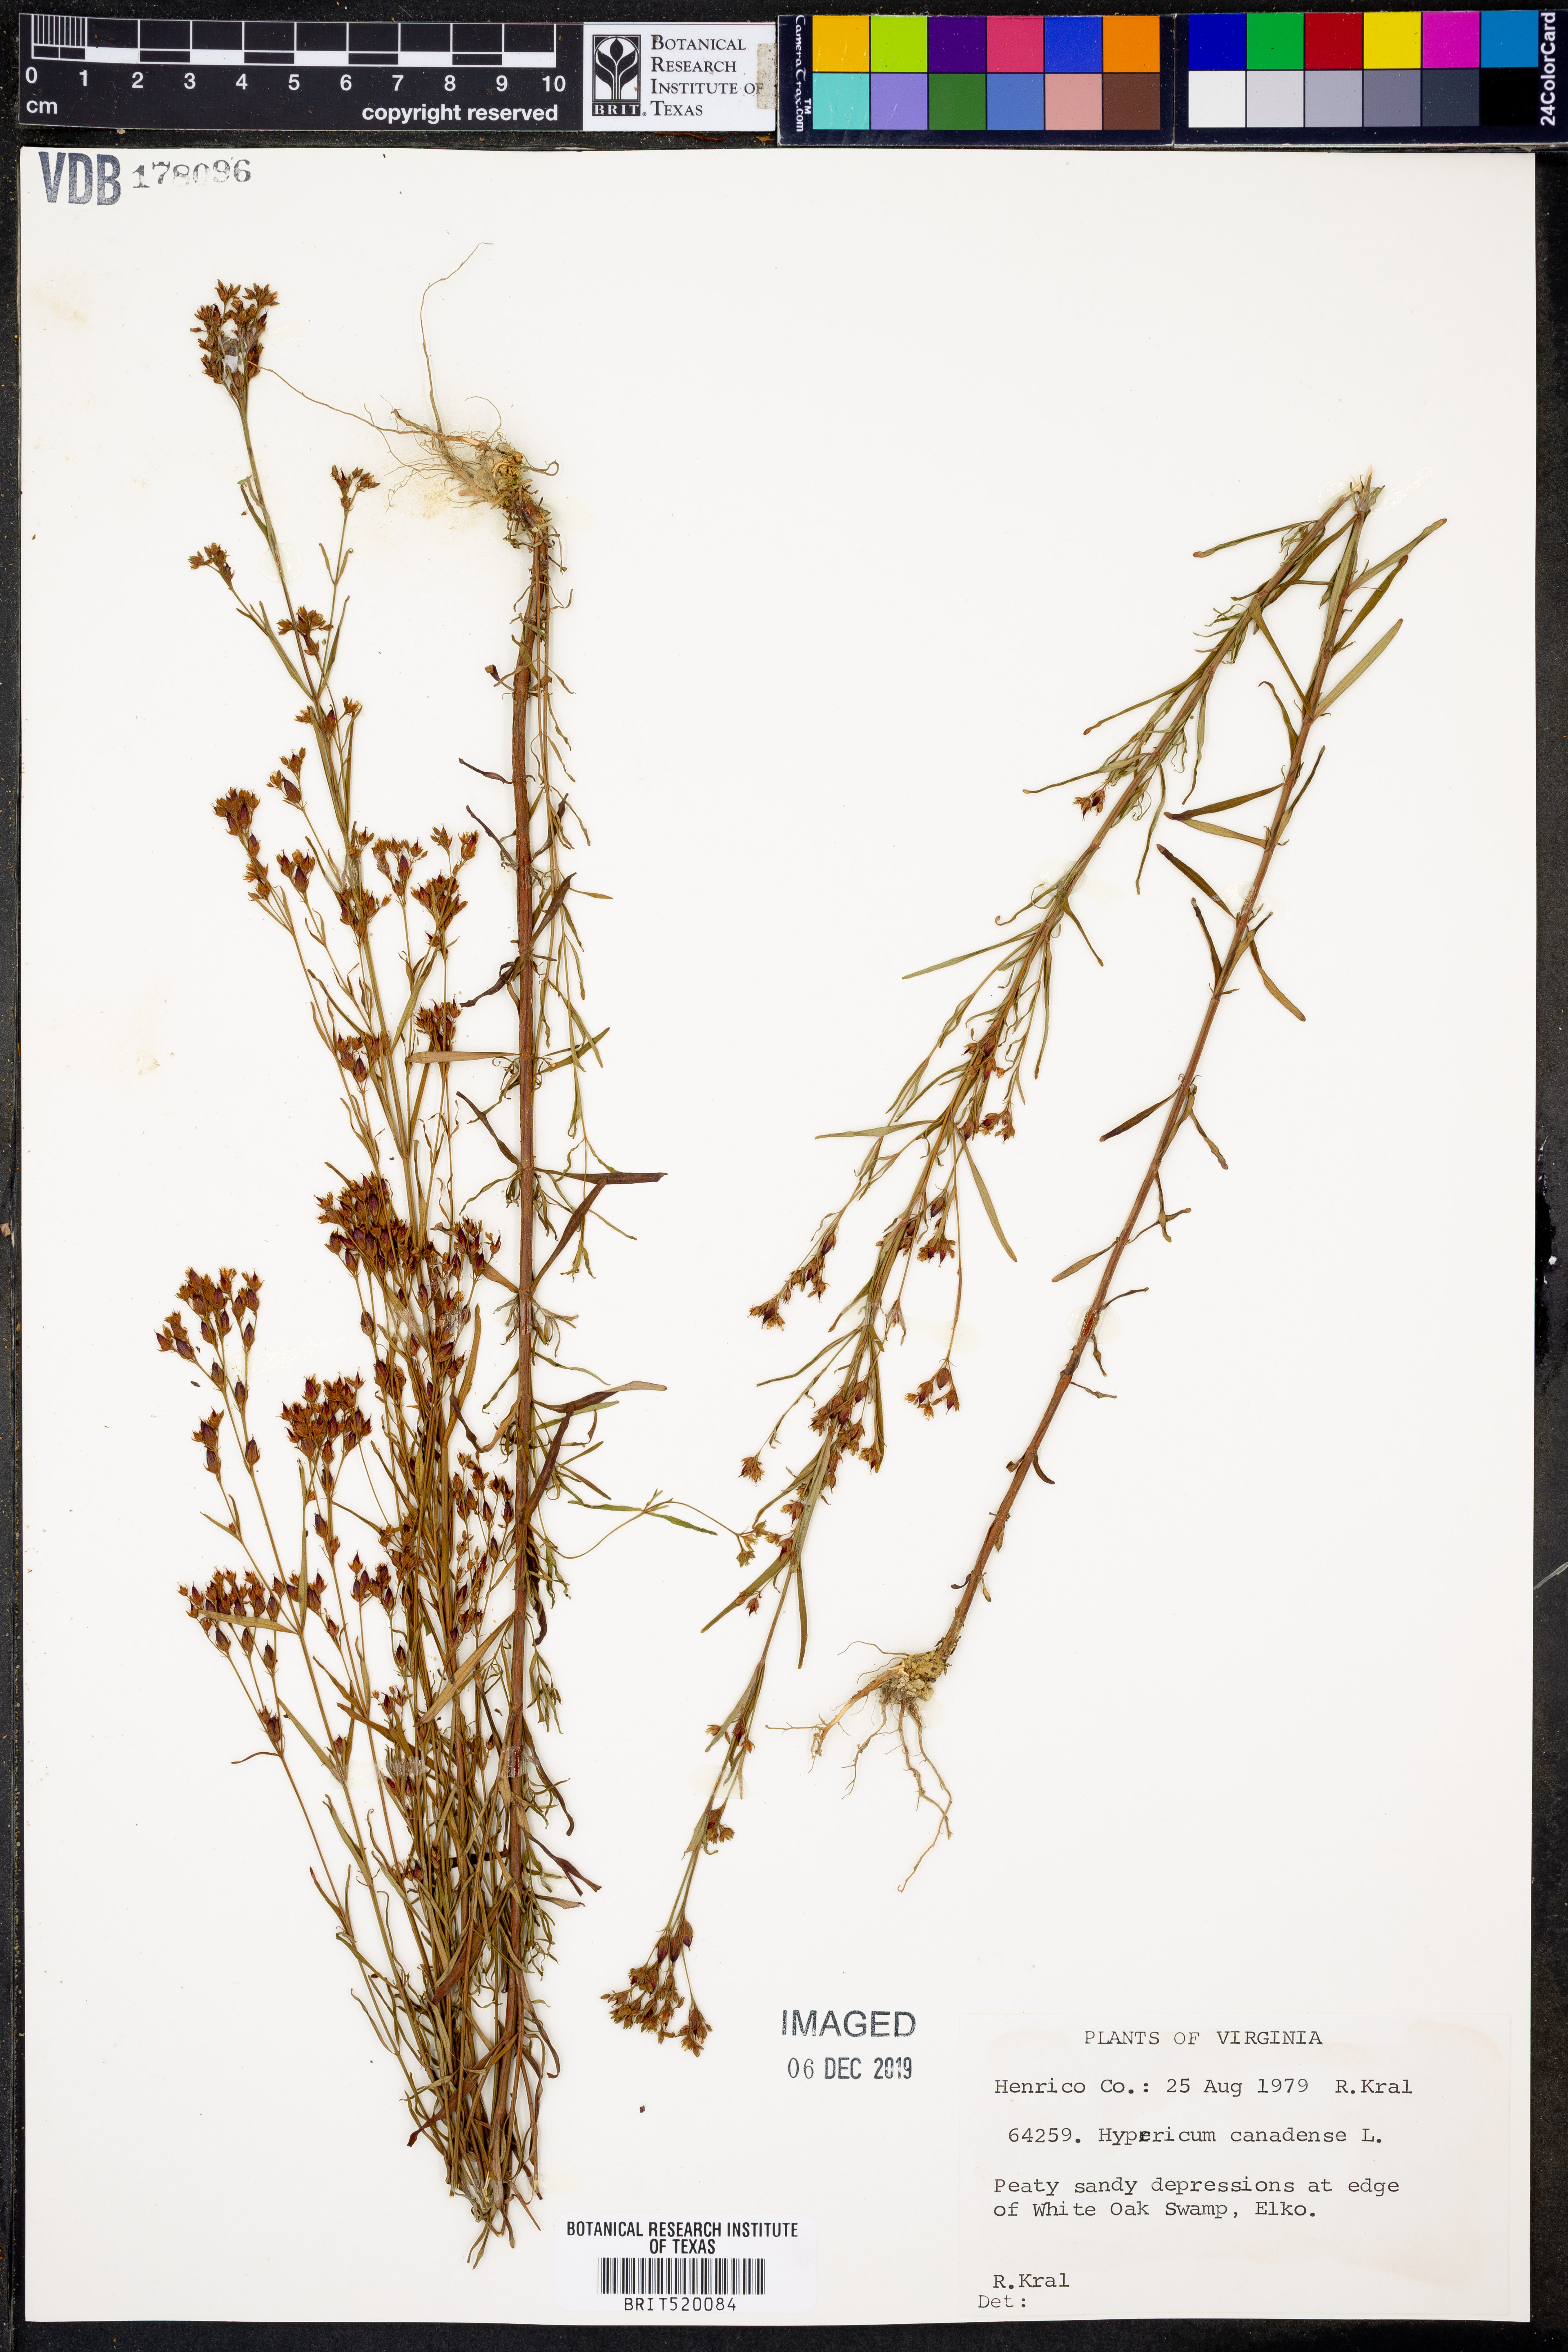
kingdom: Plantae
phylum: Tracheophyta
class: Magnoliopsida
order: Malpighiales
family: Hypericaceae
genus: Hypericum
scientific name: Hypericum canadense
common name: Irish st. john's-wort
